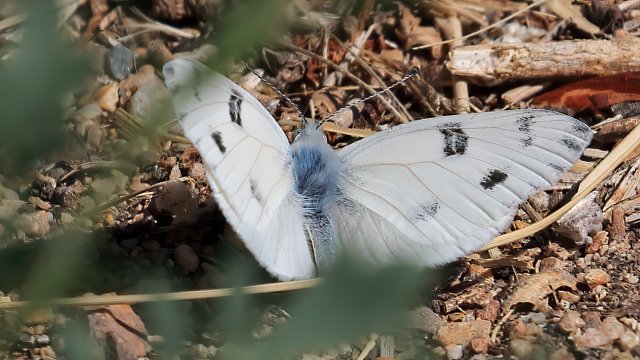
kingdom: Animalia
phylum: Arthropoda
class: Insecta
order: Lepidoptera
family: Pieridae
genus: Pontia
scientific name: Pontia protodice
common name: Checkered White
